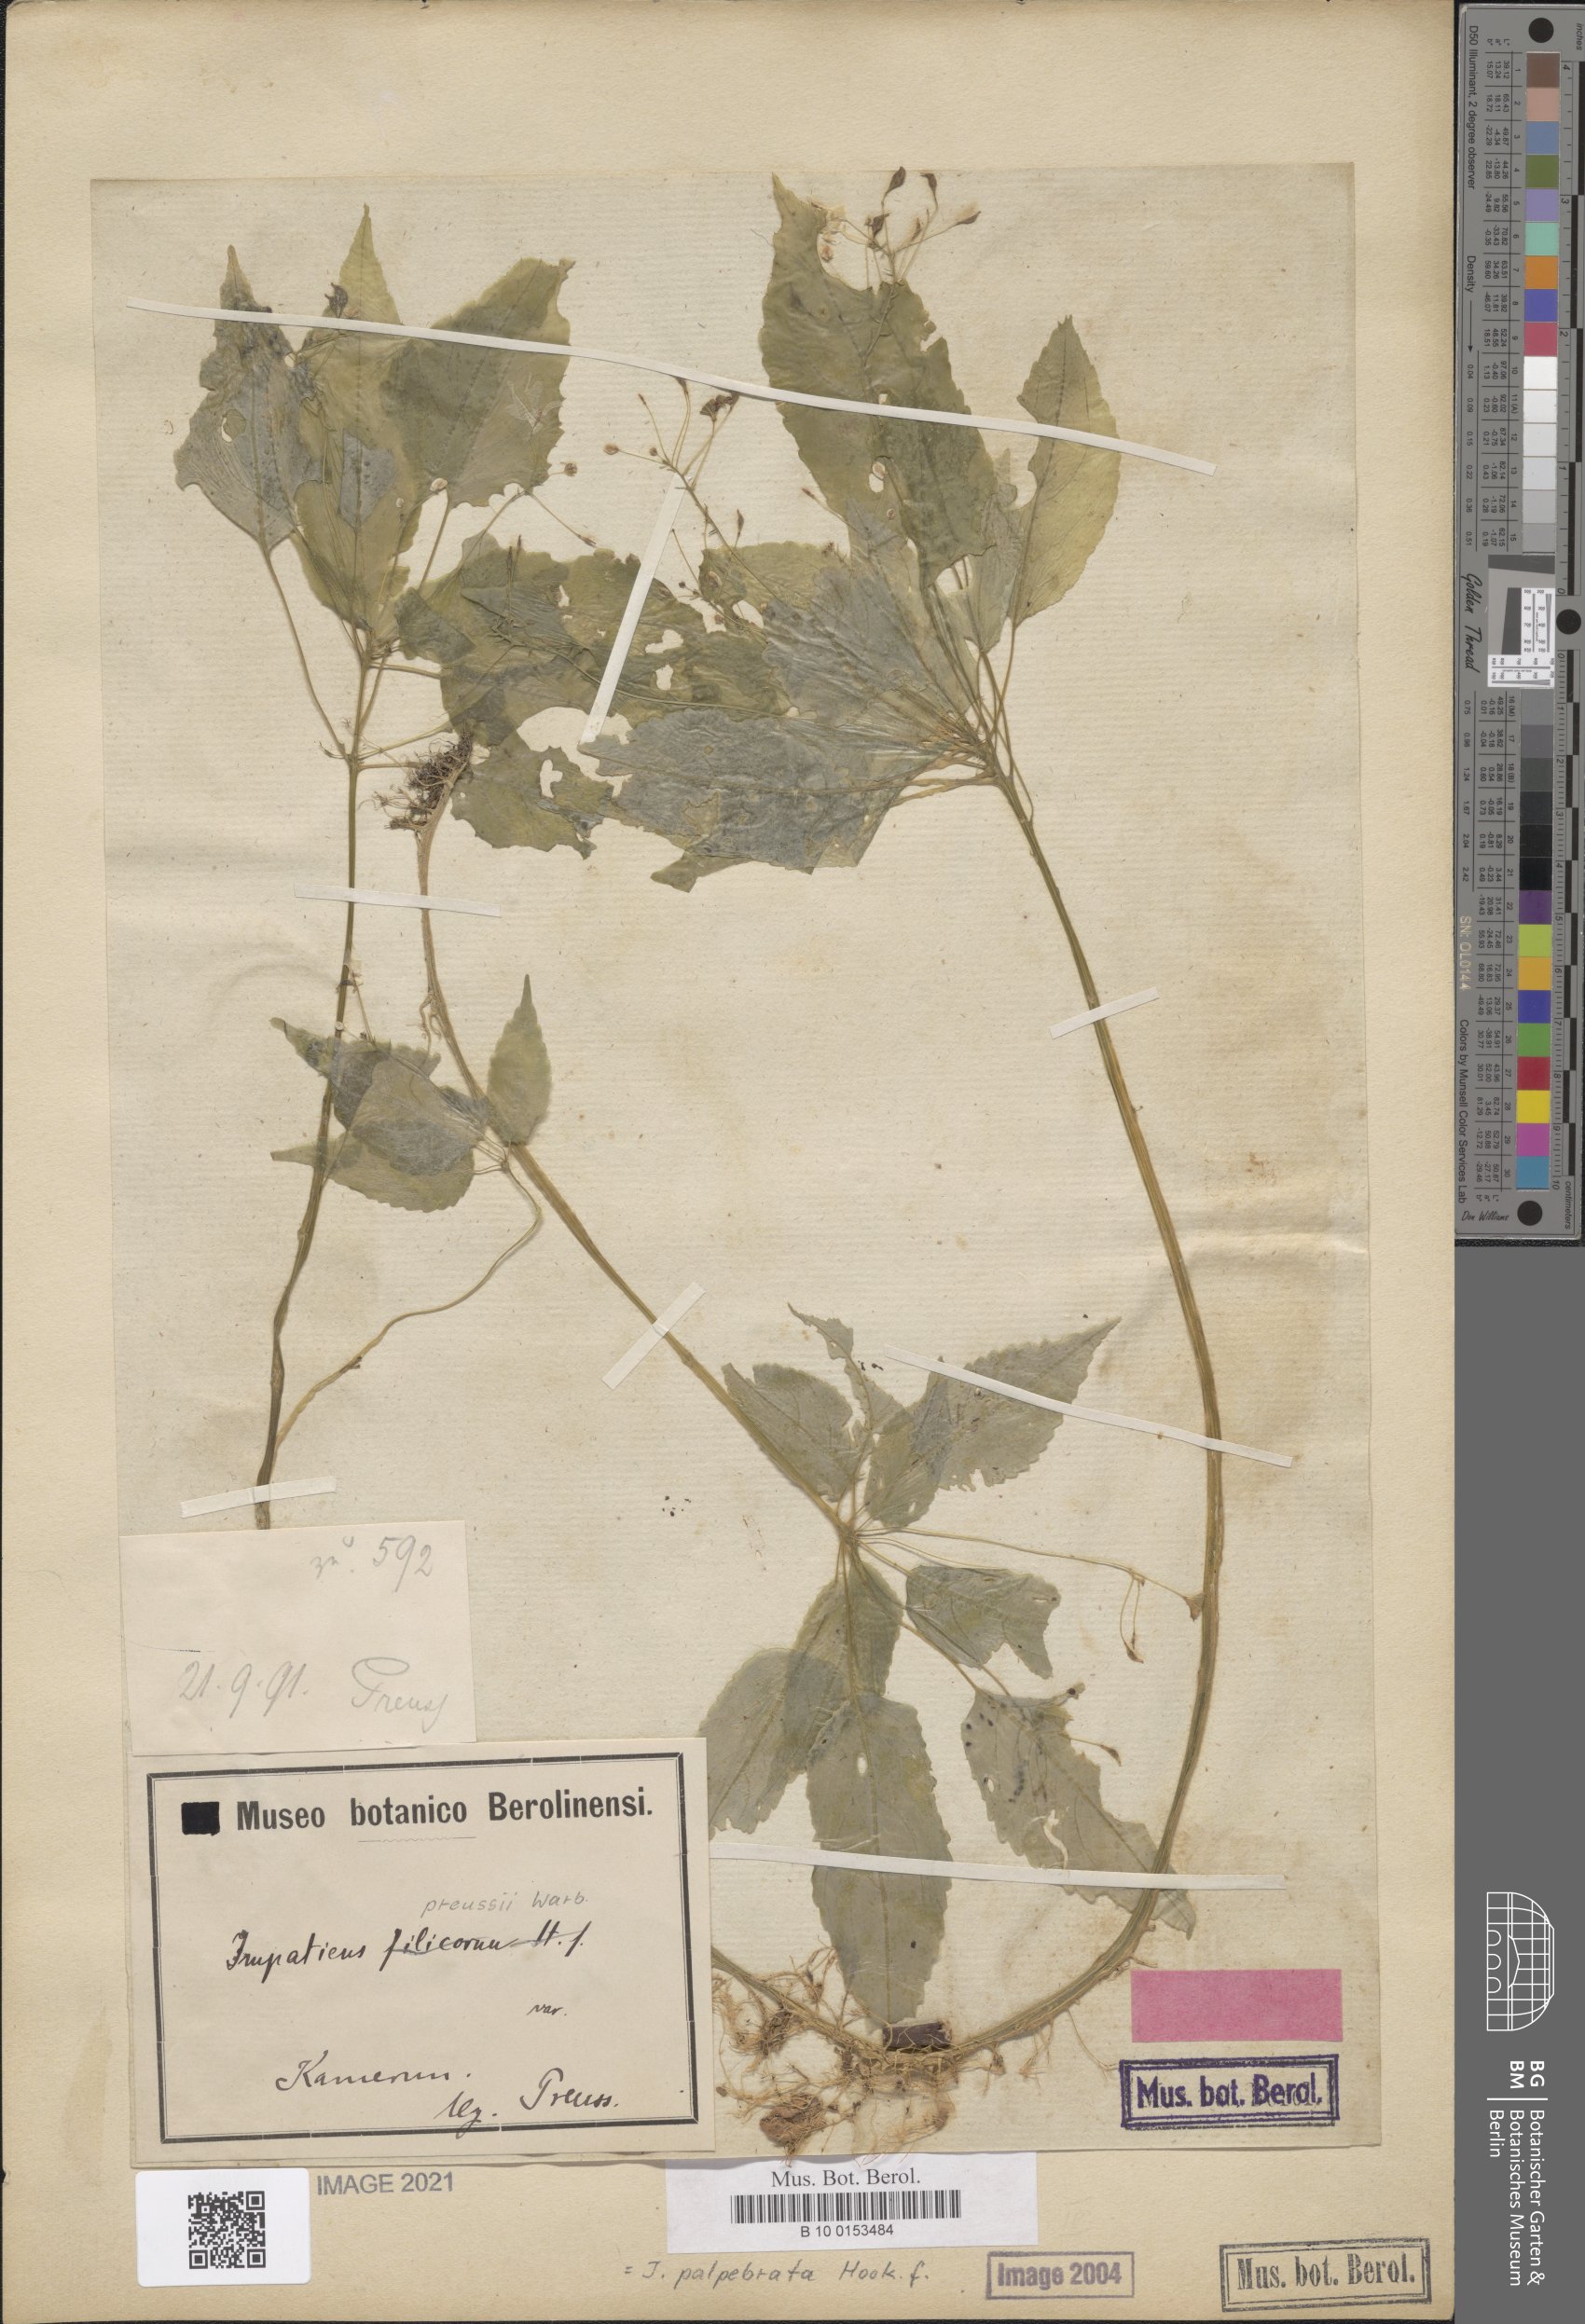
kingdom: Plantae
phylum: Tracheophyta
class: Magnoliopsida
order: Ericales
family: Balsaminaceae
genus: Impatiens
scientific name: Impatiens palpebrata
